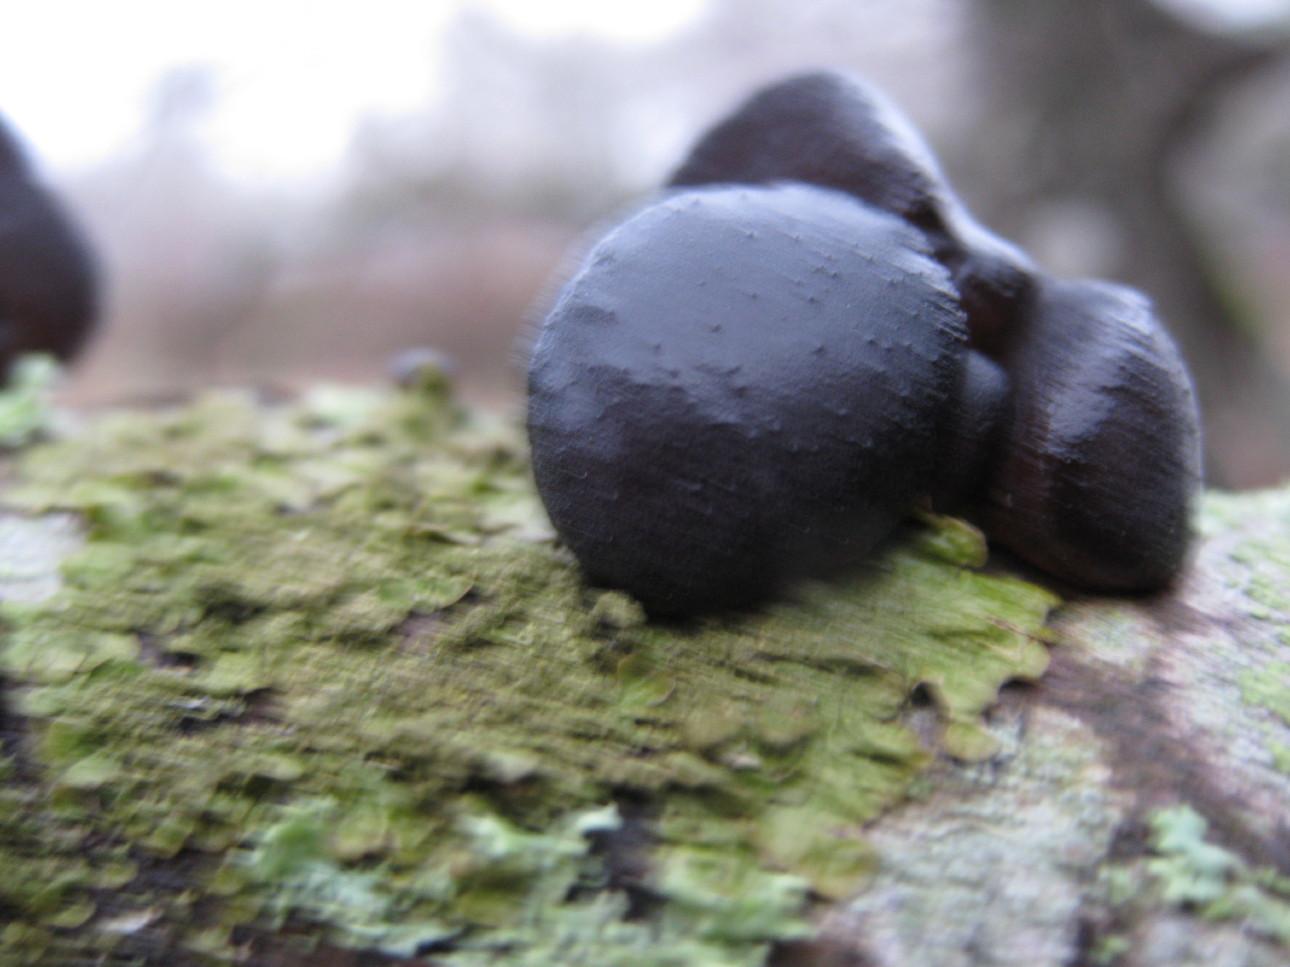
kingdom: Fungi
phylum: Basidiomycota
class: Agaricomycetes
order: Auriculariales
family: Auriculariaceae
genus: Exidia
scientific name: Exidia glandulosa
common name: ege-bævretop
